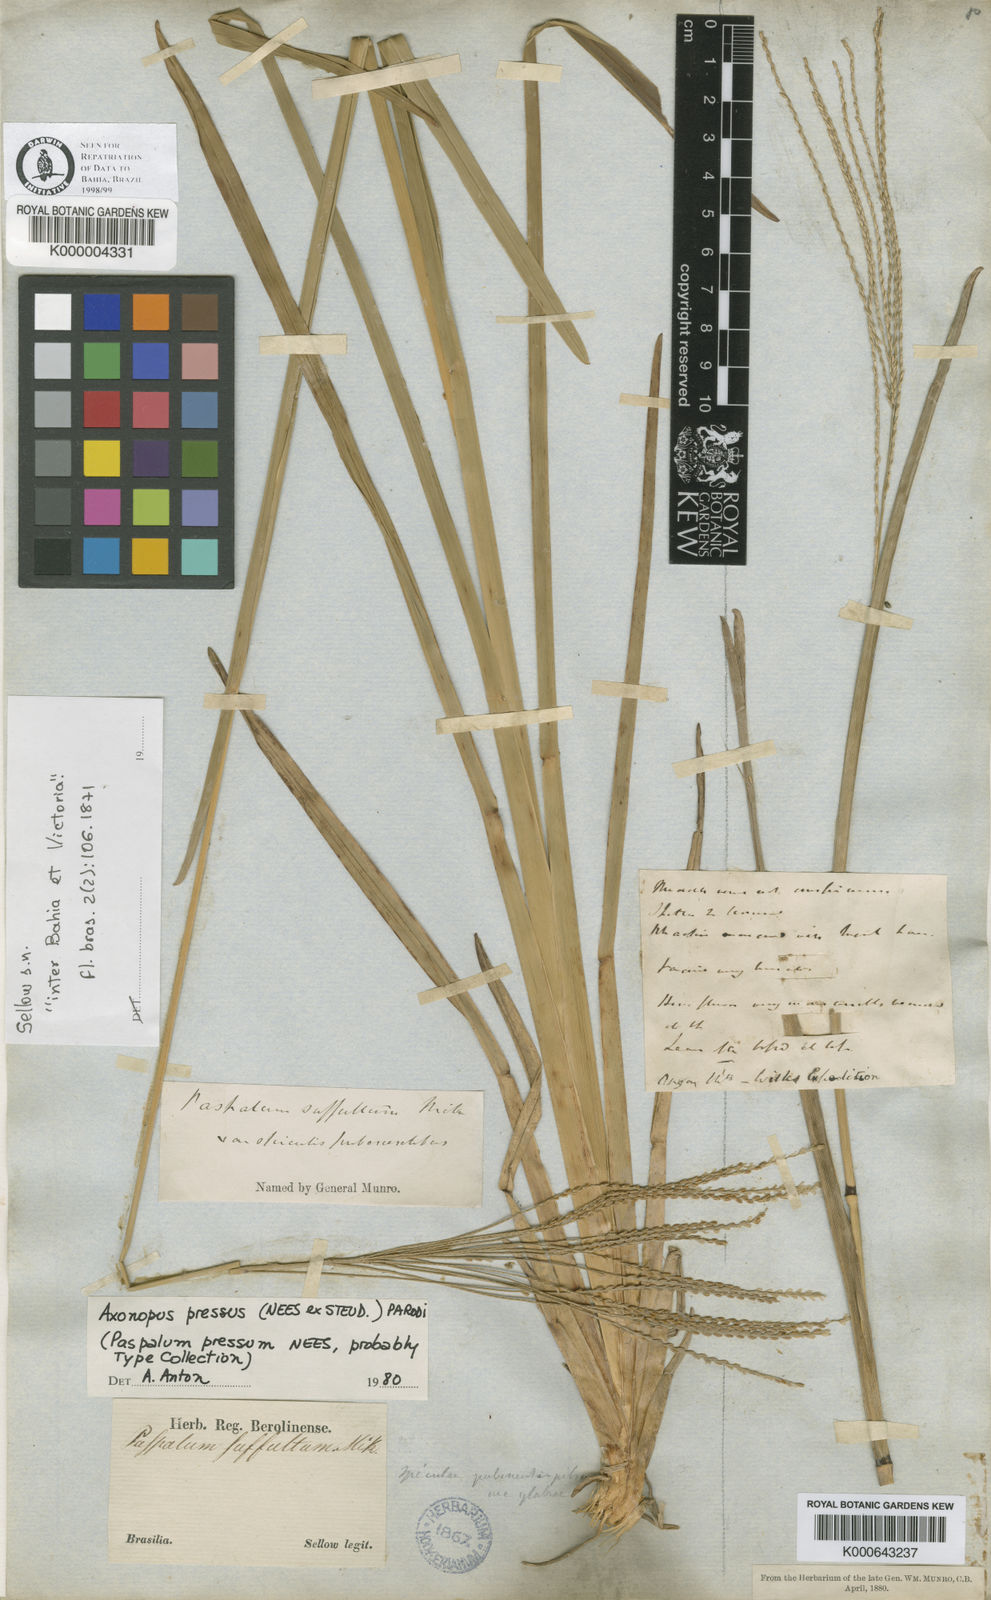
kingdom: Plantae
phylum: Tracheophyta
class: Liliopsida
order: Poales
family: Poaceae
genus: Axonopus
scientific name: Axonopus pressus
